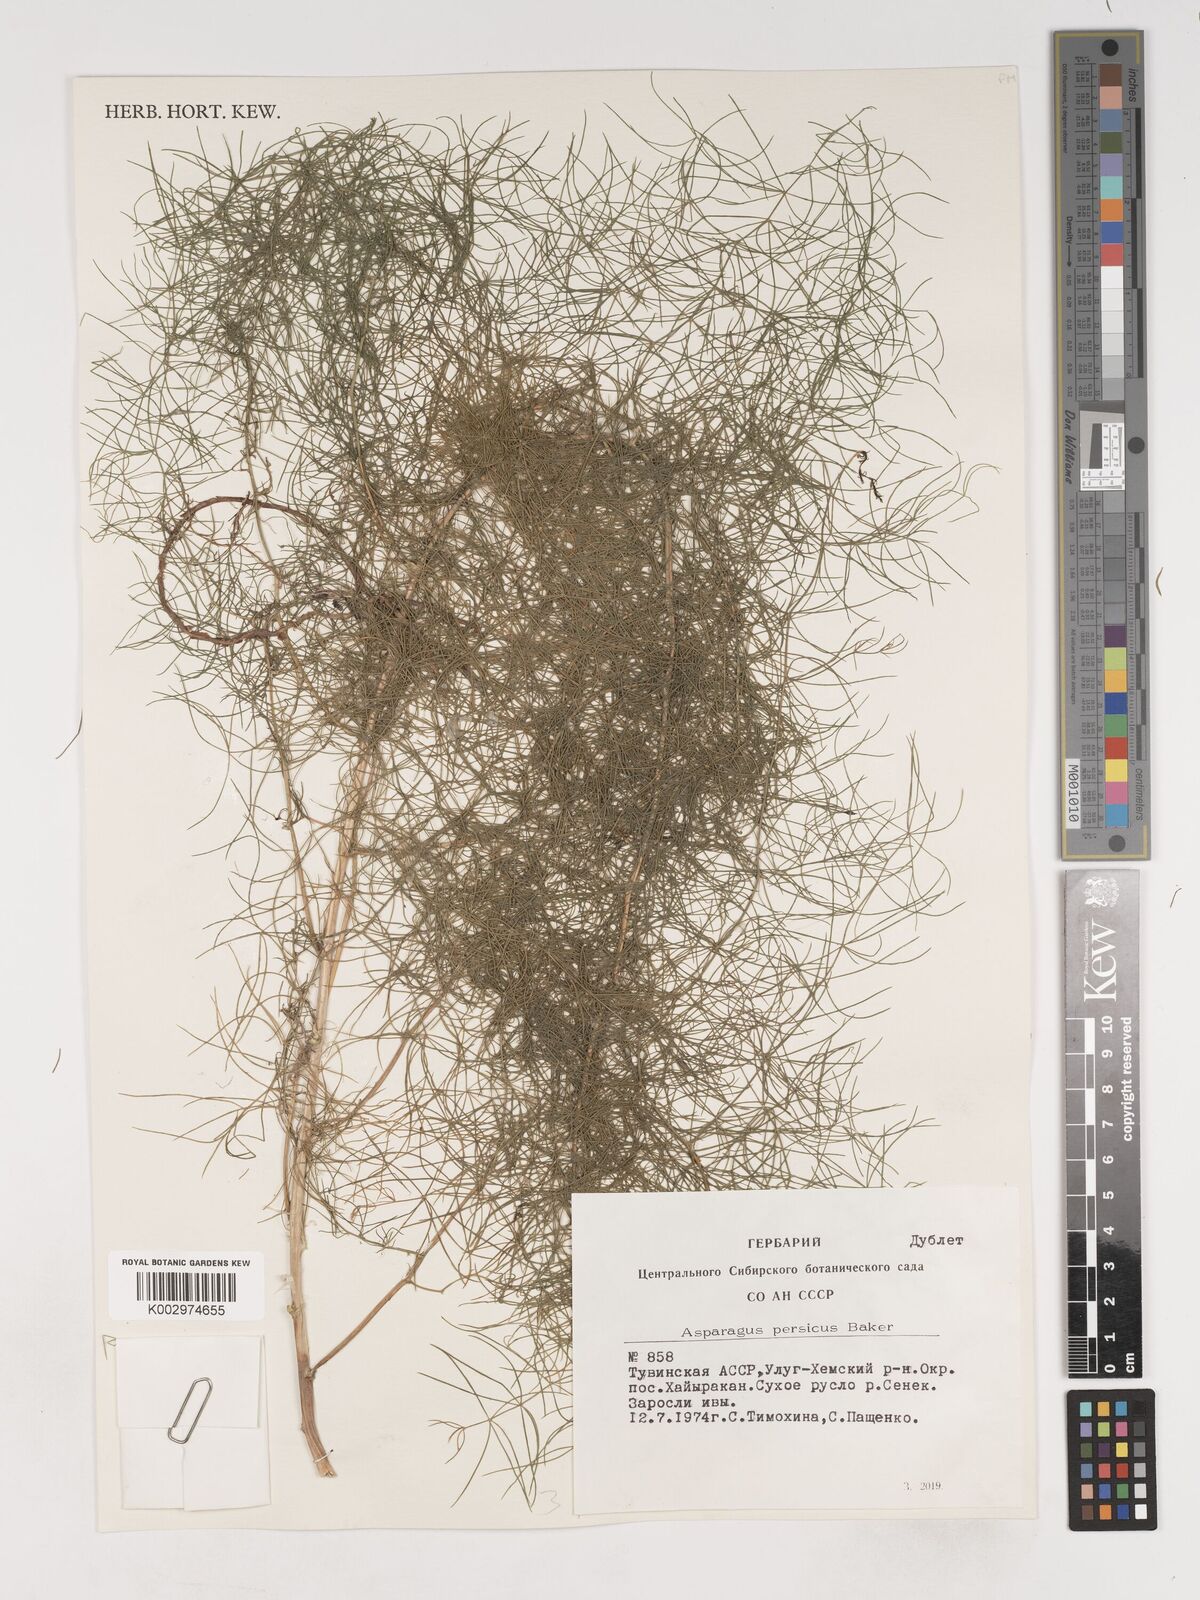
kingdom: Plantae
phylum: Tracheophyta
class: Liliopsida
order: Asparagales
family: Asparagaceae
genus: Asparagus
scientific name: Asparagus persicus
